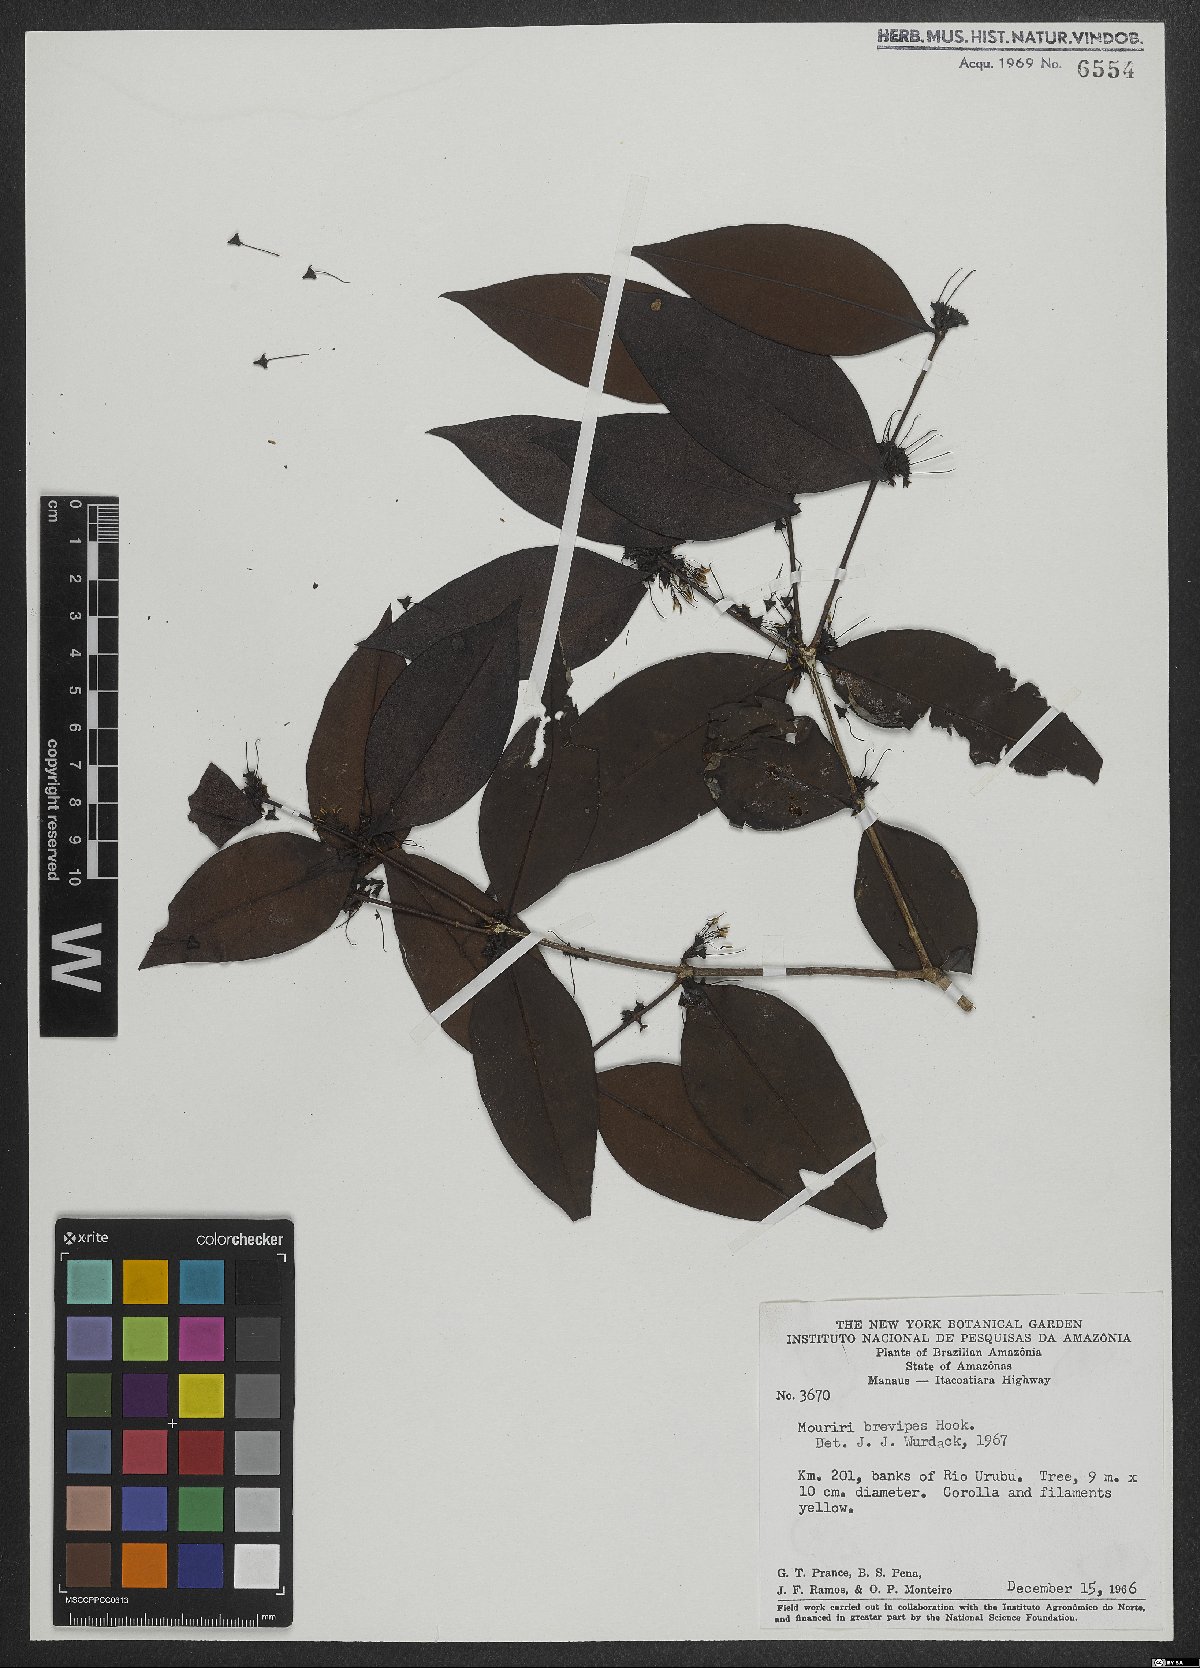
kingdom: Plantae
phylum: Tracheophyta
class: Magnoliopsida
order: Myrtales
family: Melastomataceae
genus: Mouriri
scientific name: Mouriri brevipes
